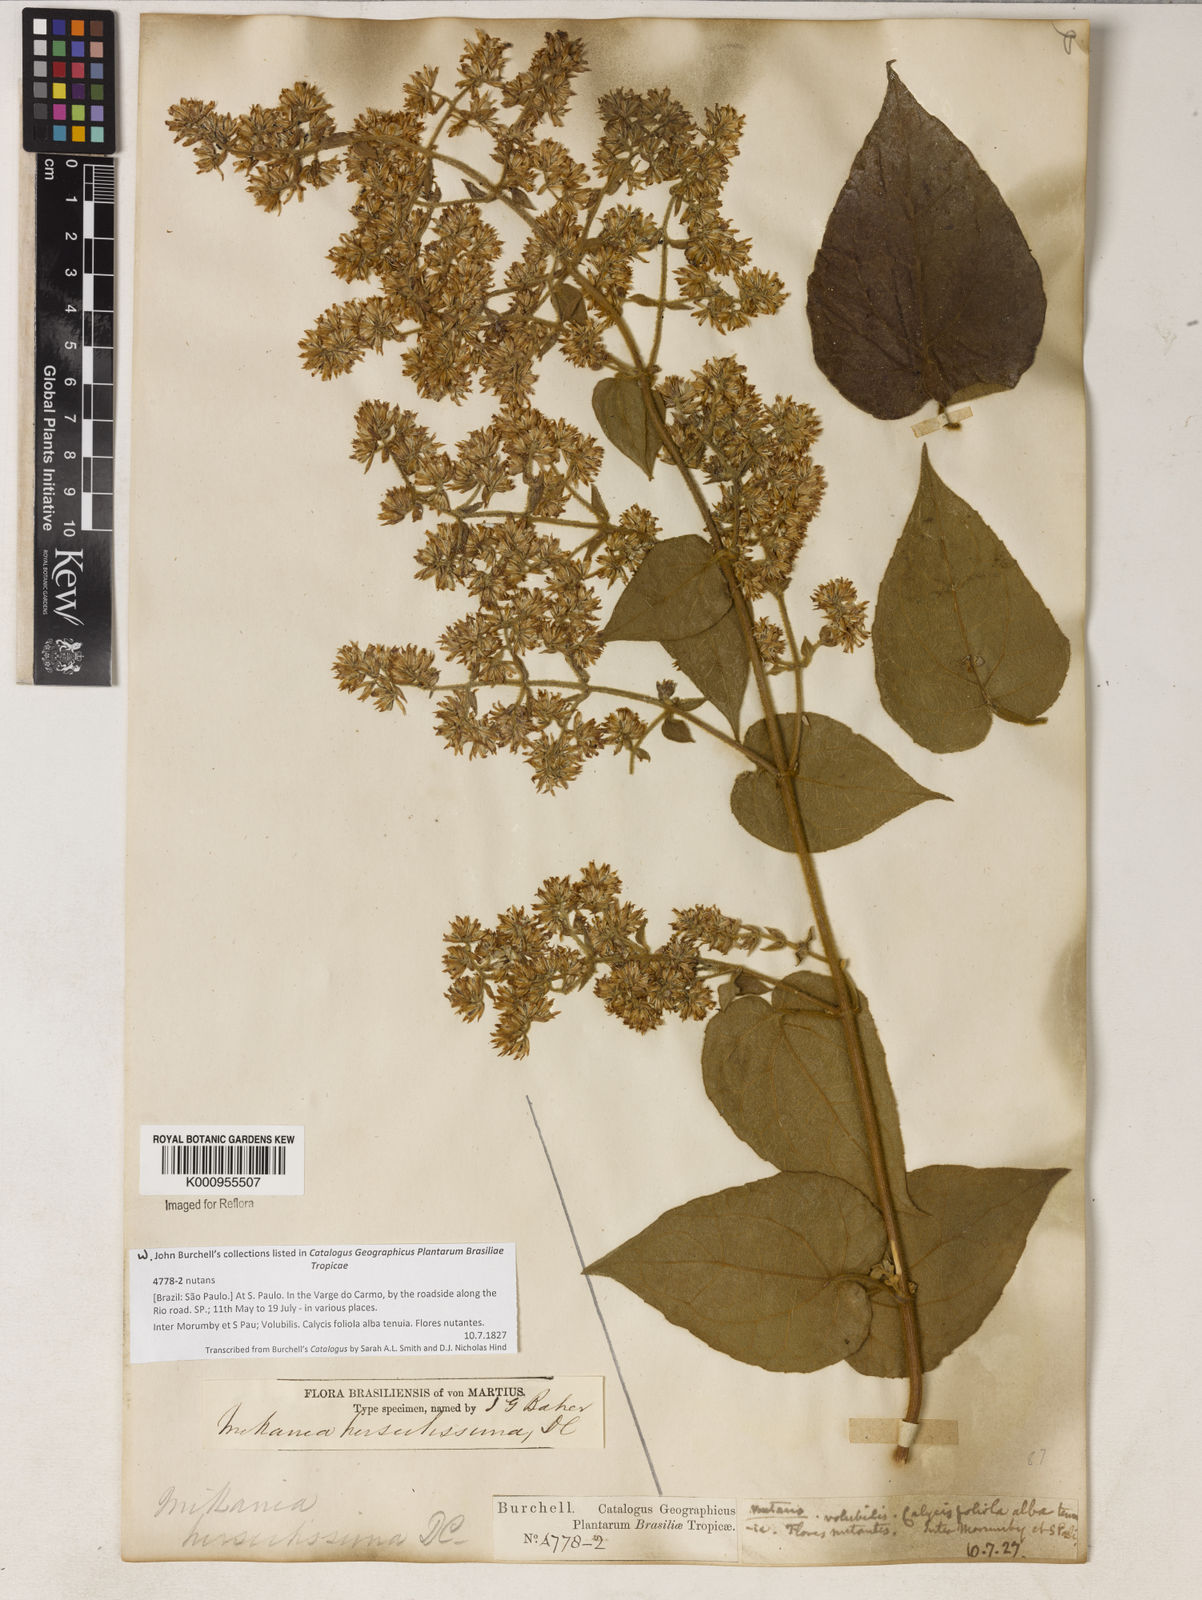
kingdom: Plantae
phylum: Tracheophyta
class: Magnoliopsida
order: Asterales
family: Asteraceae
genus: Mikania
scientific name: Mikania banisteriae
